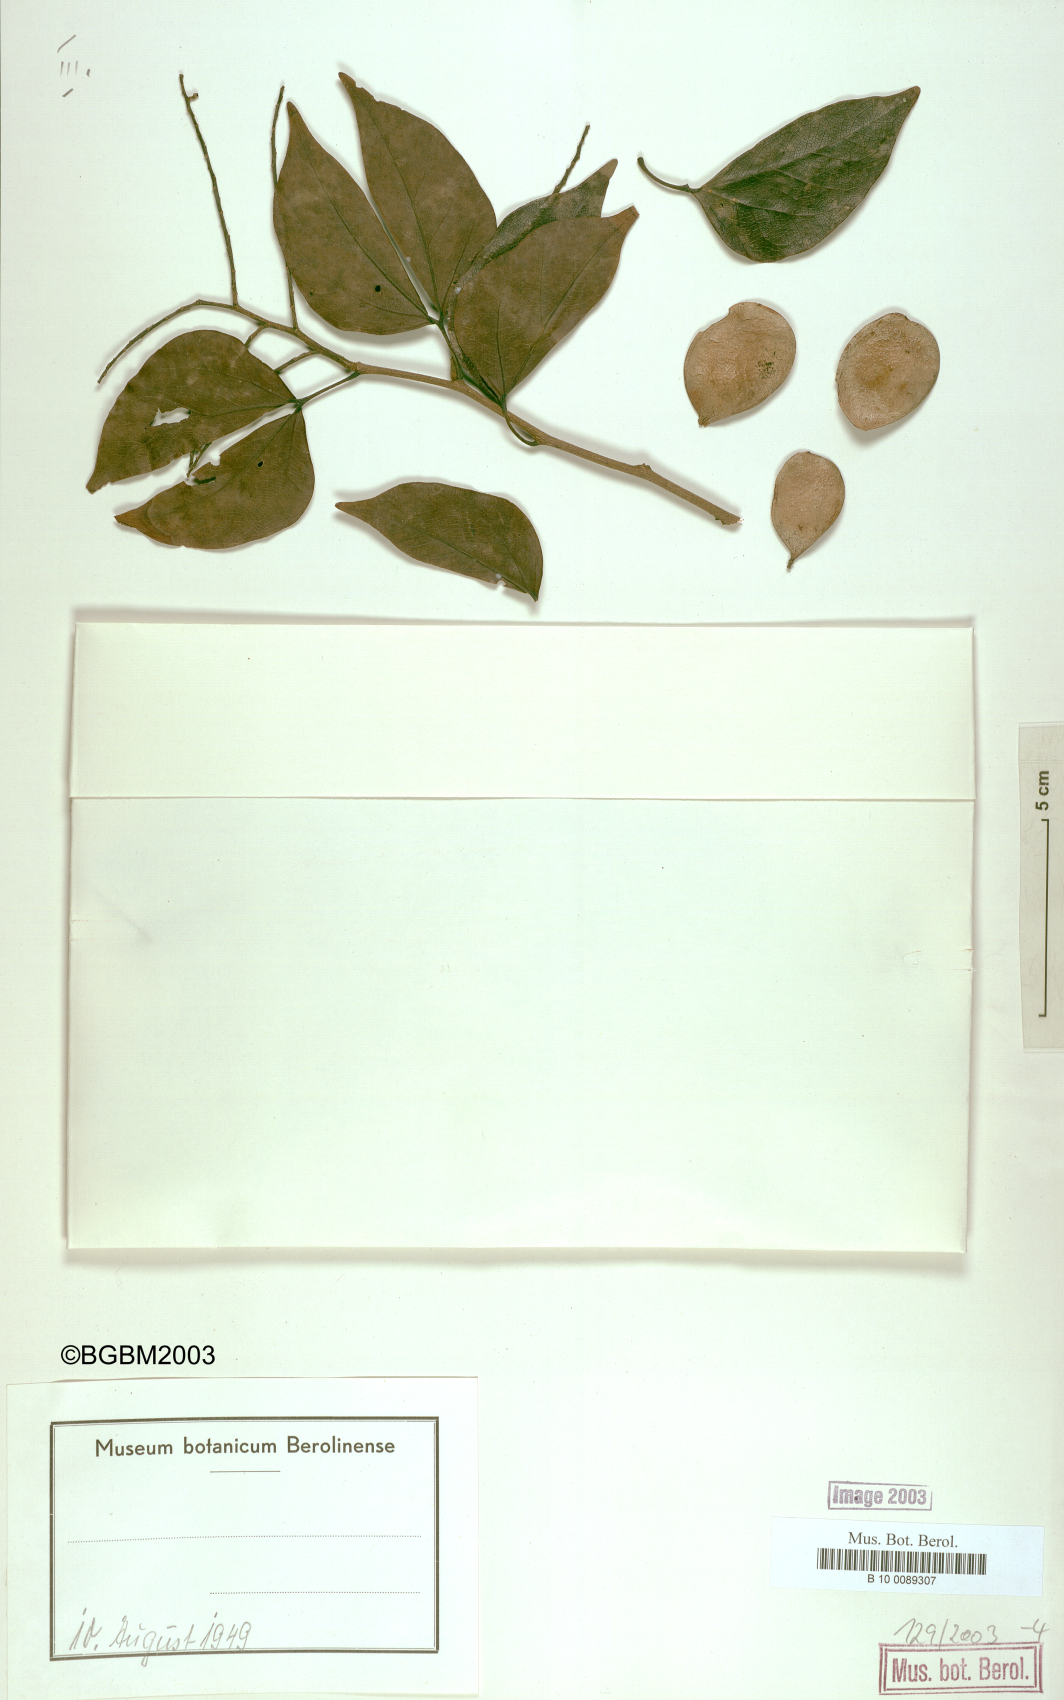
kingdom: Plantae
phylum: Tracheophyta
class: Magnoliopsida
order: Fabales
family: Fabaceae
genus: Copaifera
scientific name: Copaifera carrissoana
